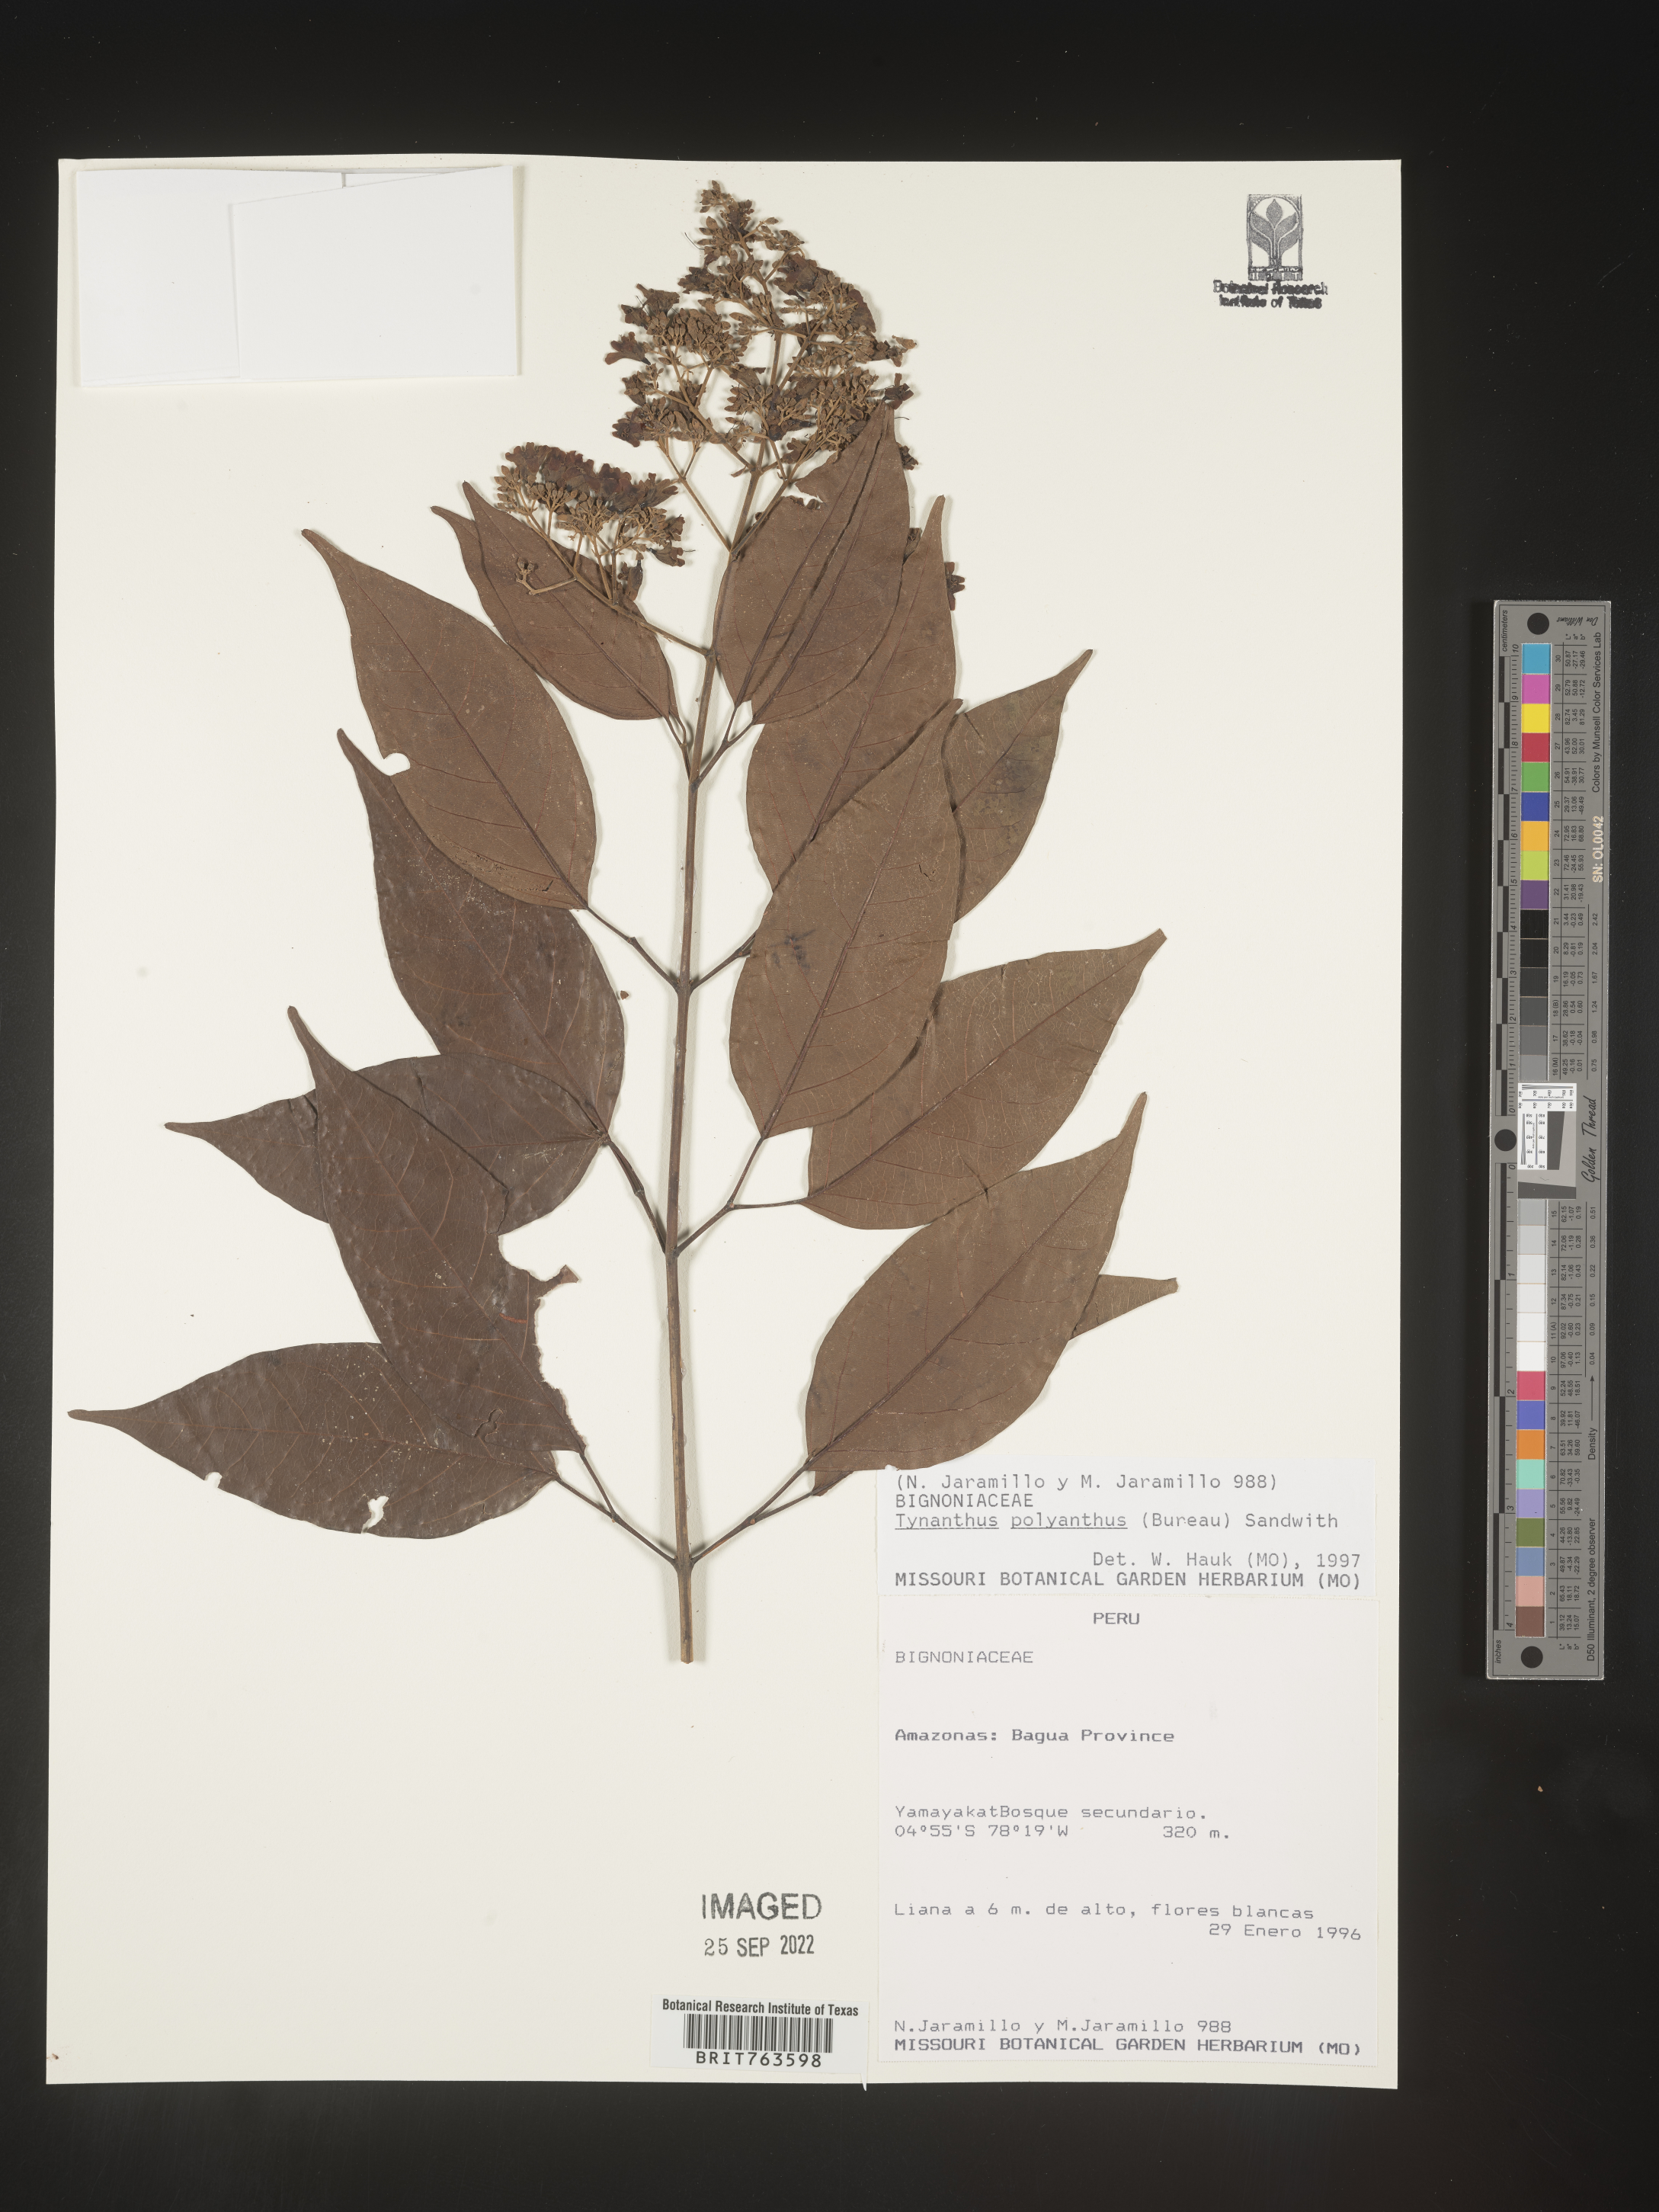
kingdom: Plantae
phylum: Tracheophyta
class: Magnoliopsida
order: Lamiales
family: Bignoniaceae
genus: Tynanthus
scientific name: Tynanthus
